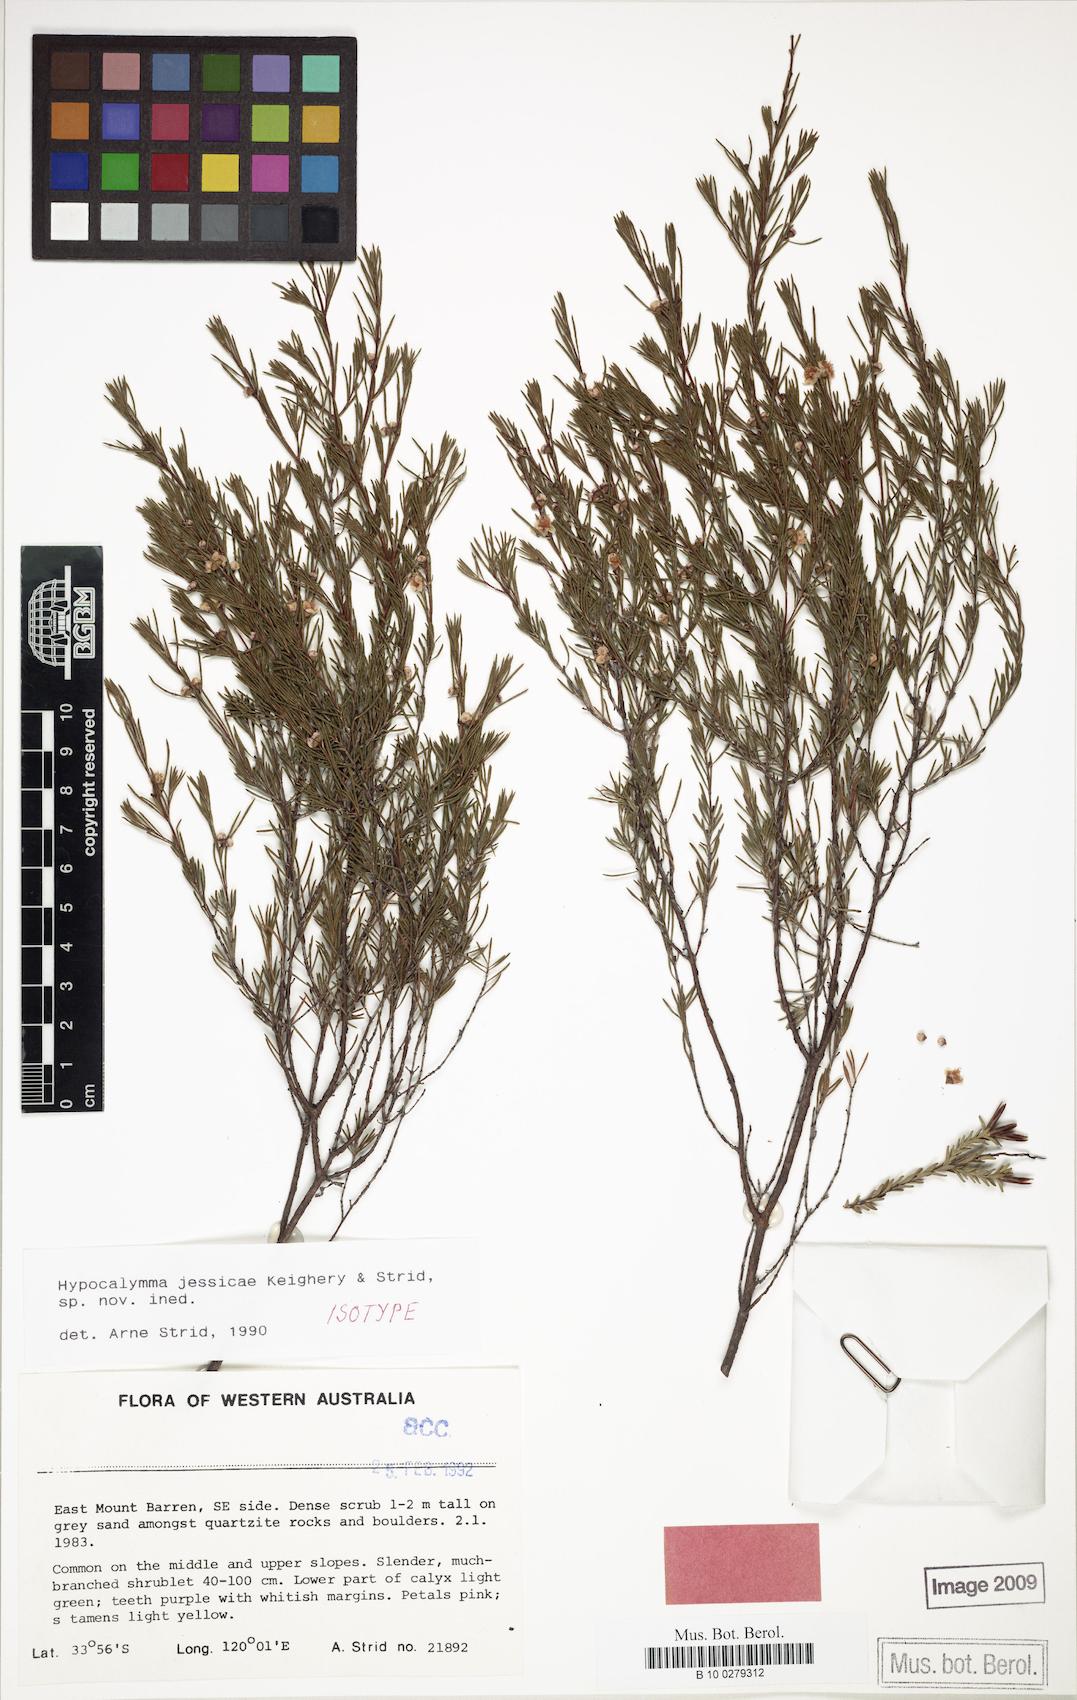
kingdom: Plantae
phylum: Tracheophyta
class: Magnoliopsida
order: Myrtales
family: Myrtaceae
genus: Hypocalymma
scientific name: Hypocalymma jessicae
